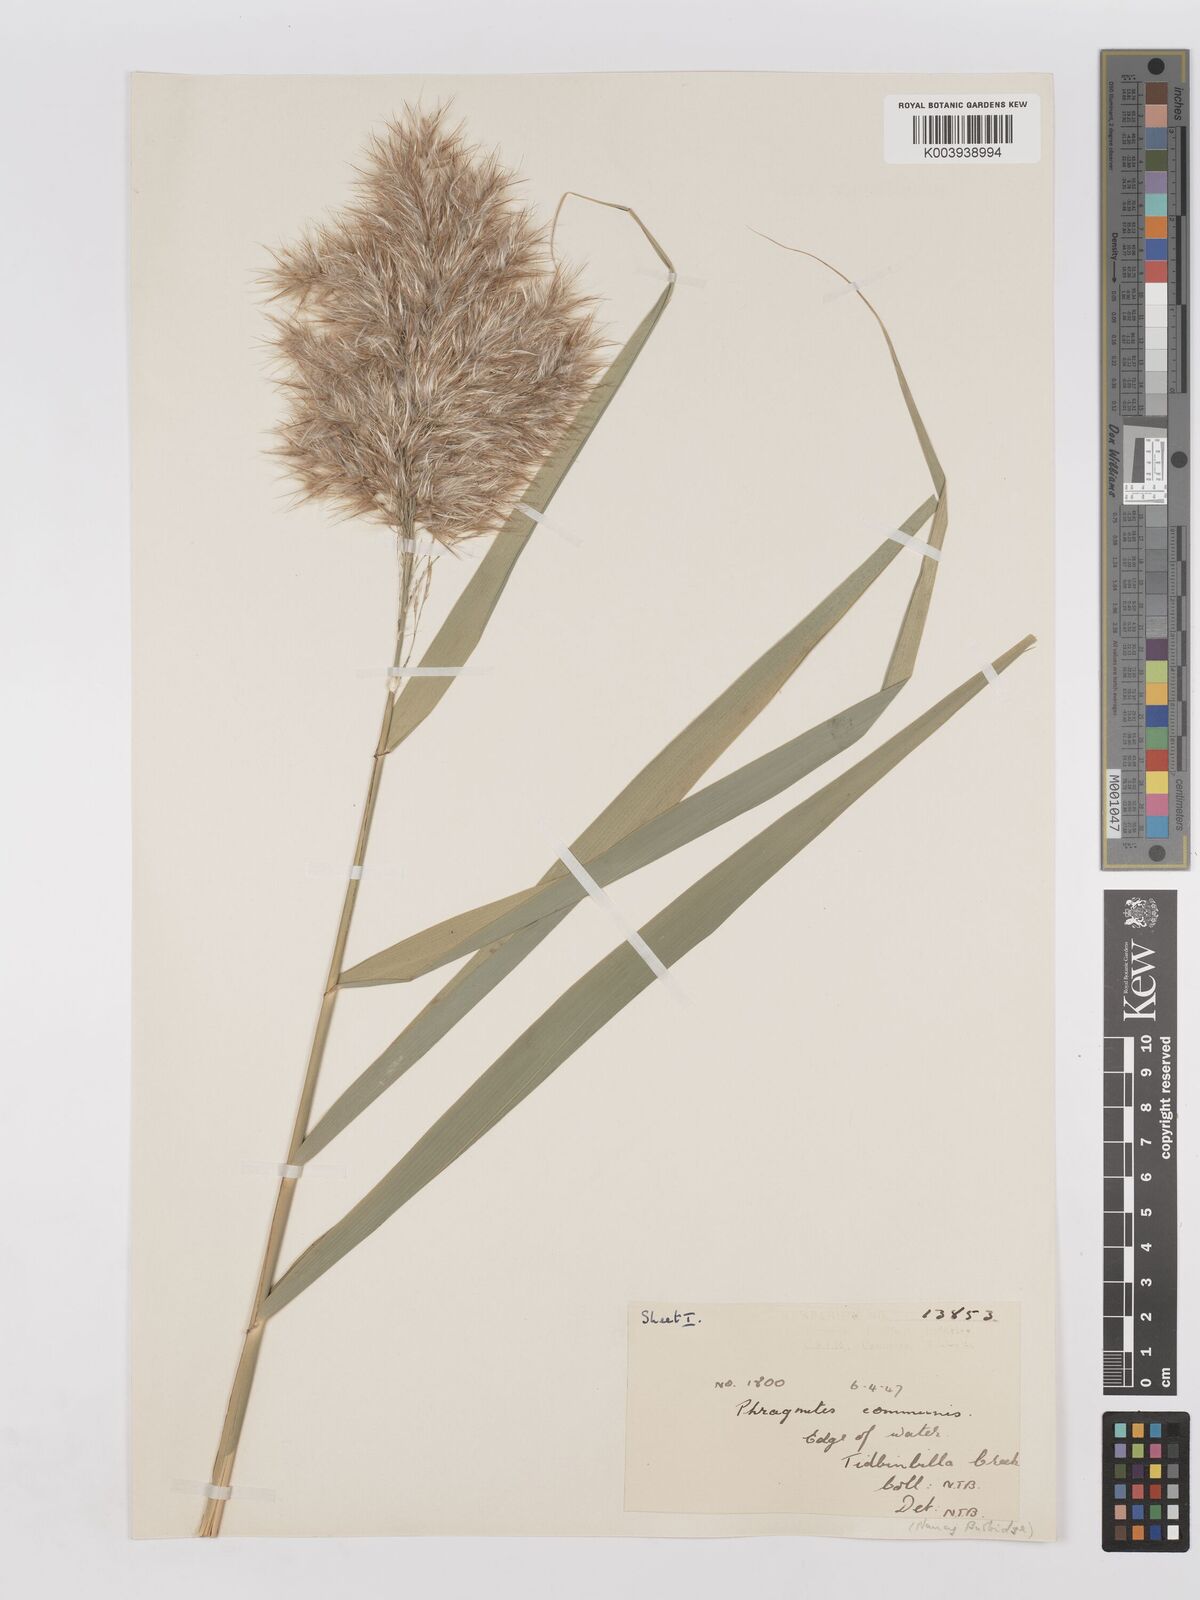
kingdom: Plantae
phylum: Tracheophyta
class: Liliopsida
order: Poales
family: Poaceae
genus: Phragmites
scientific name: Phragmites australis
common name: Common reed
